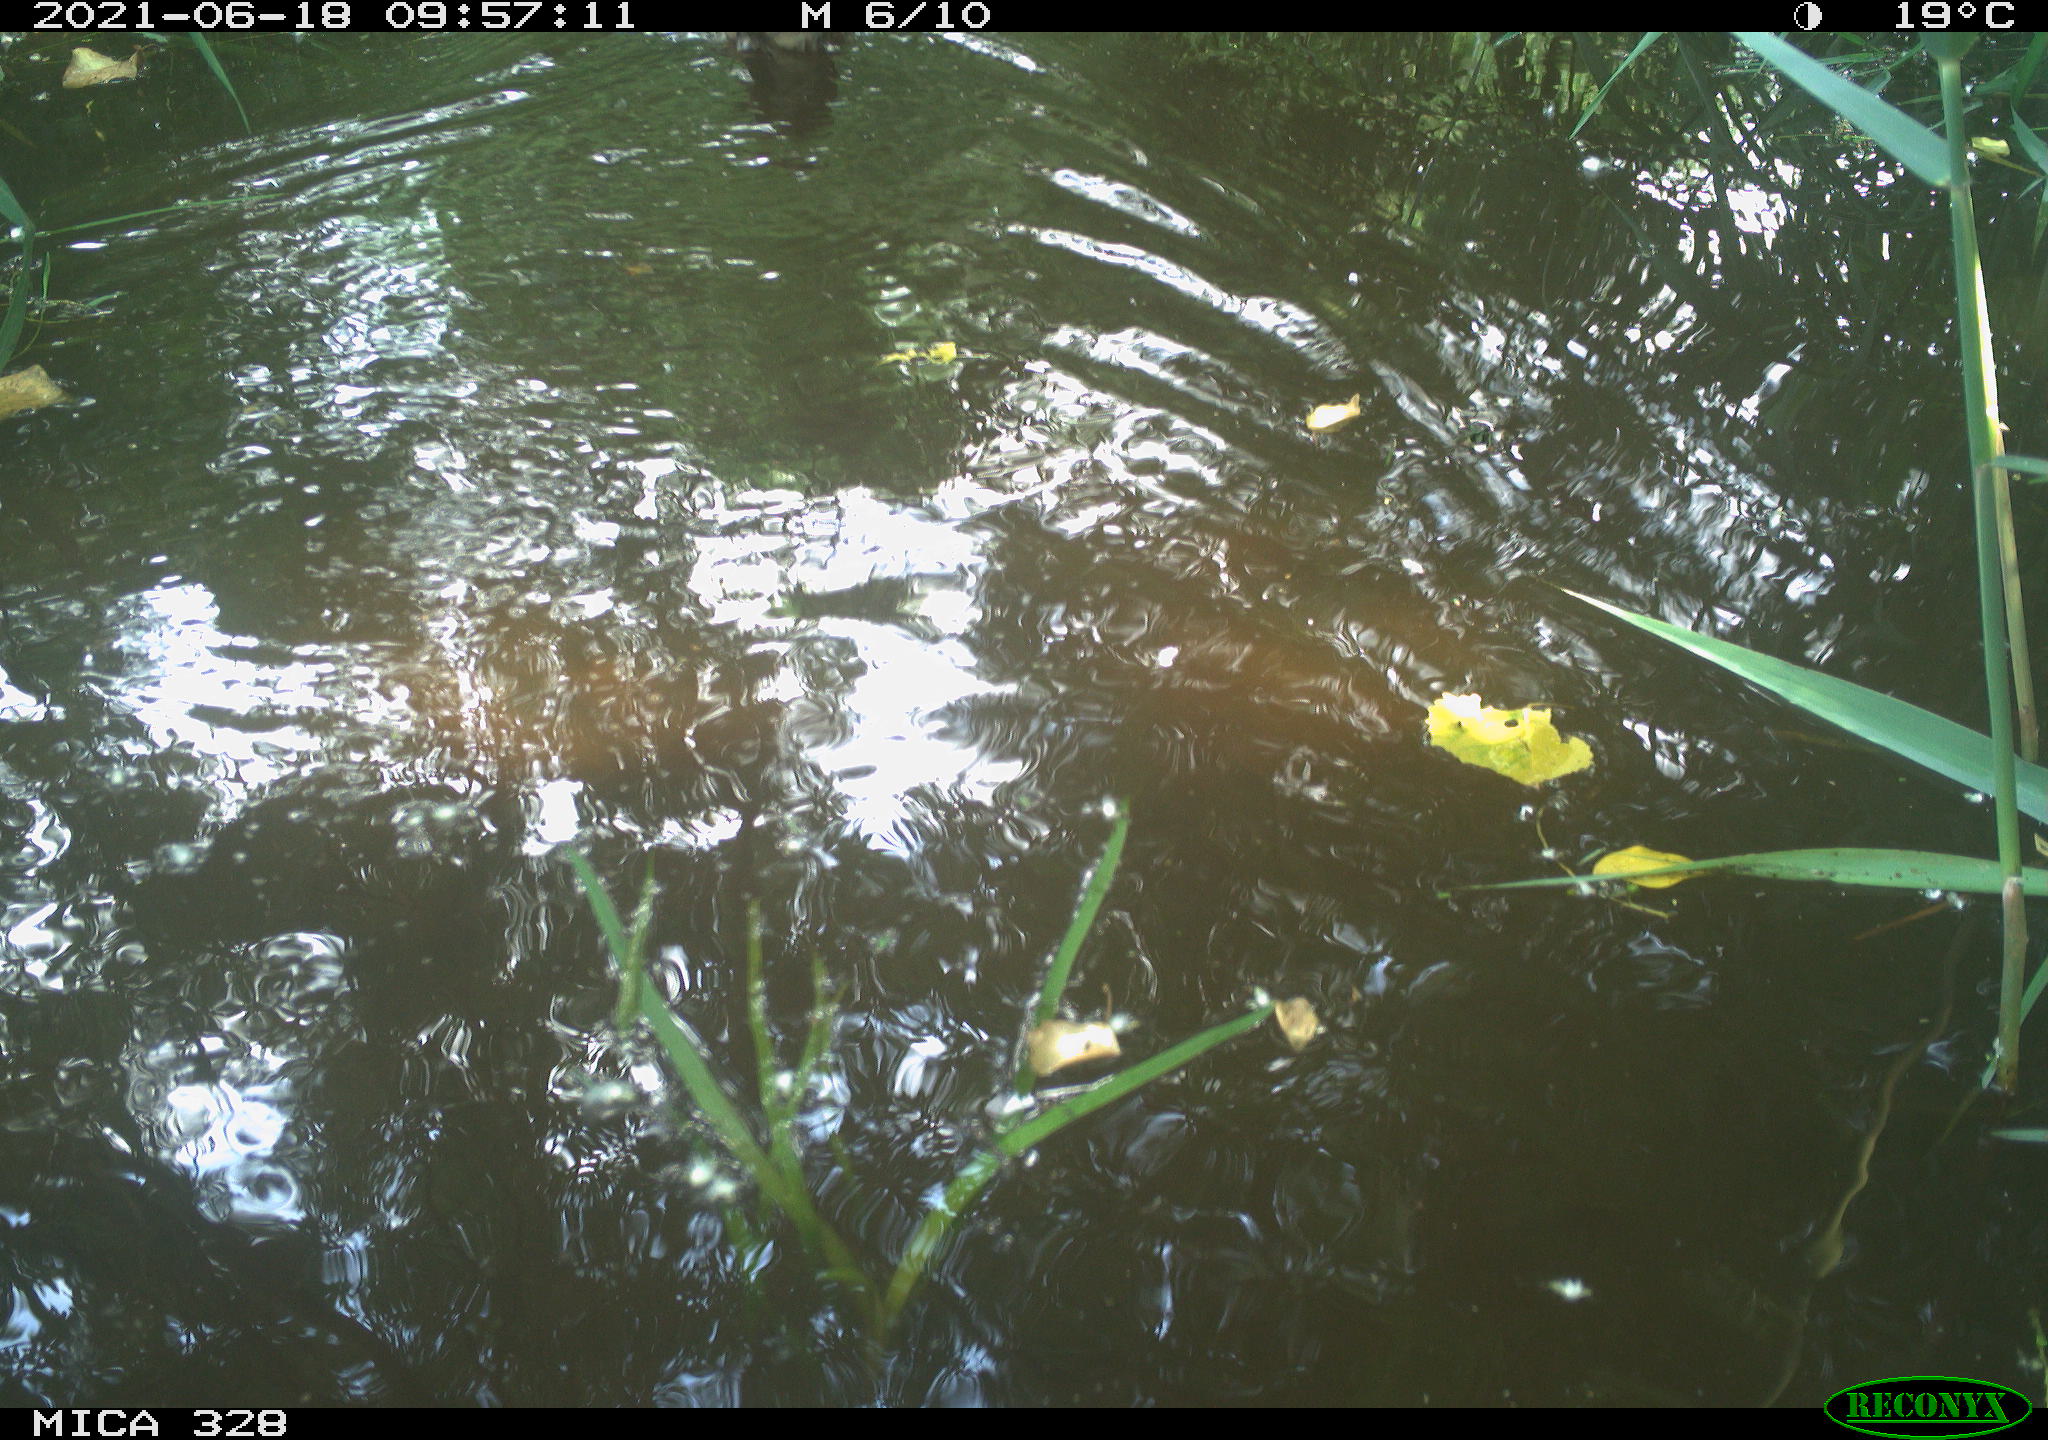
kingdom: Animalia
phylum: Chordata
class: Aves
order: Anseriformes
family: Anatidae
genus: Aix
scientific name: Aix galericulata
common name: Mandarin duck
